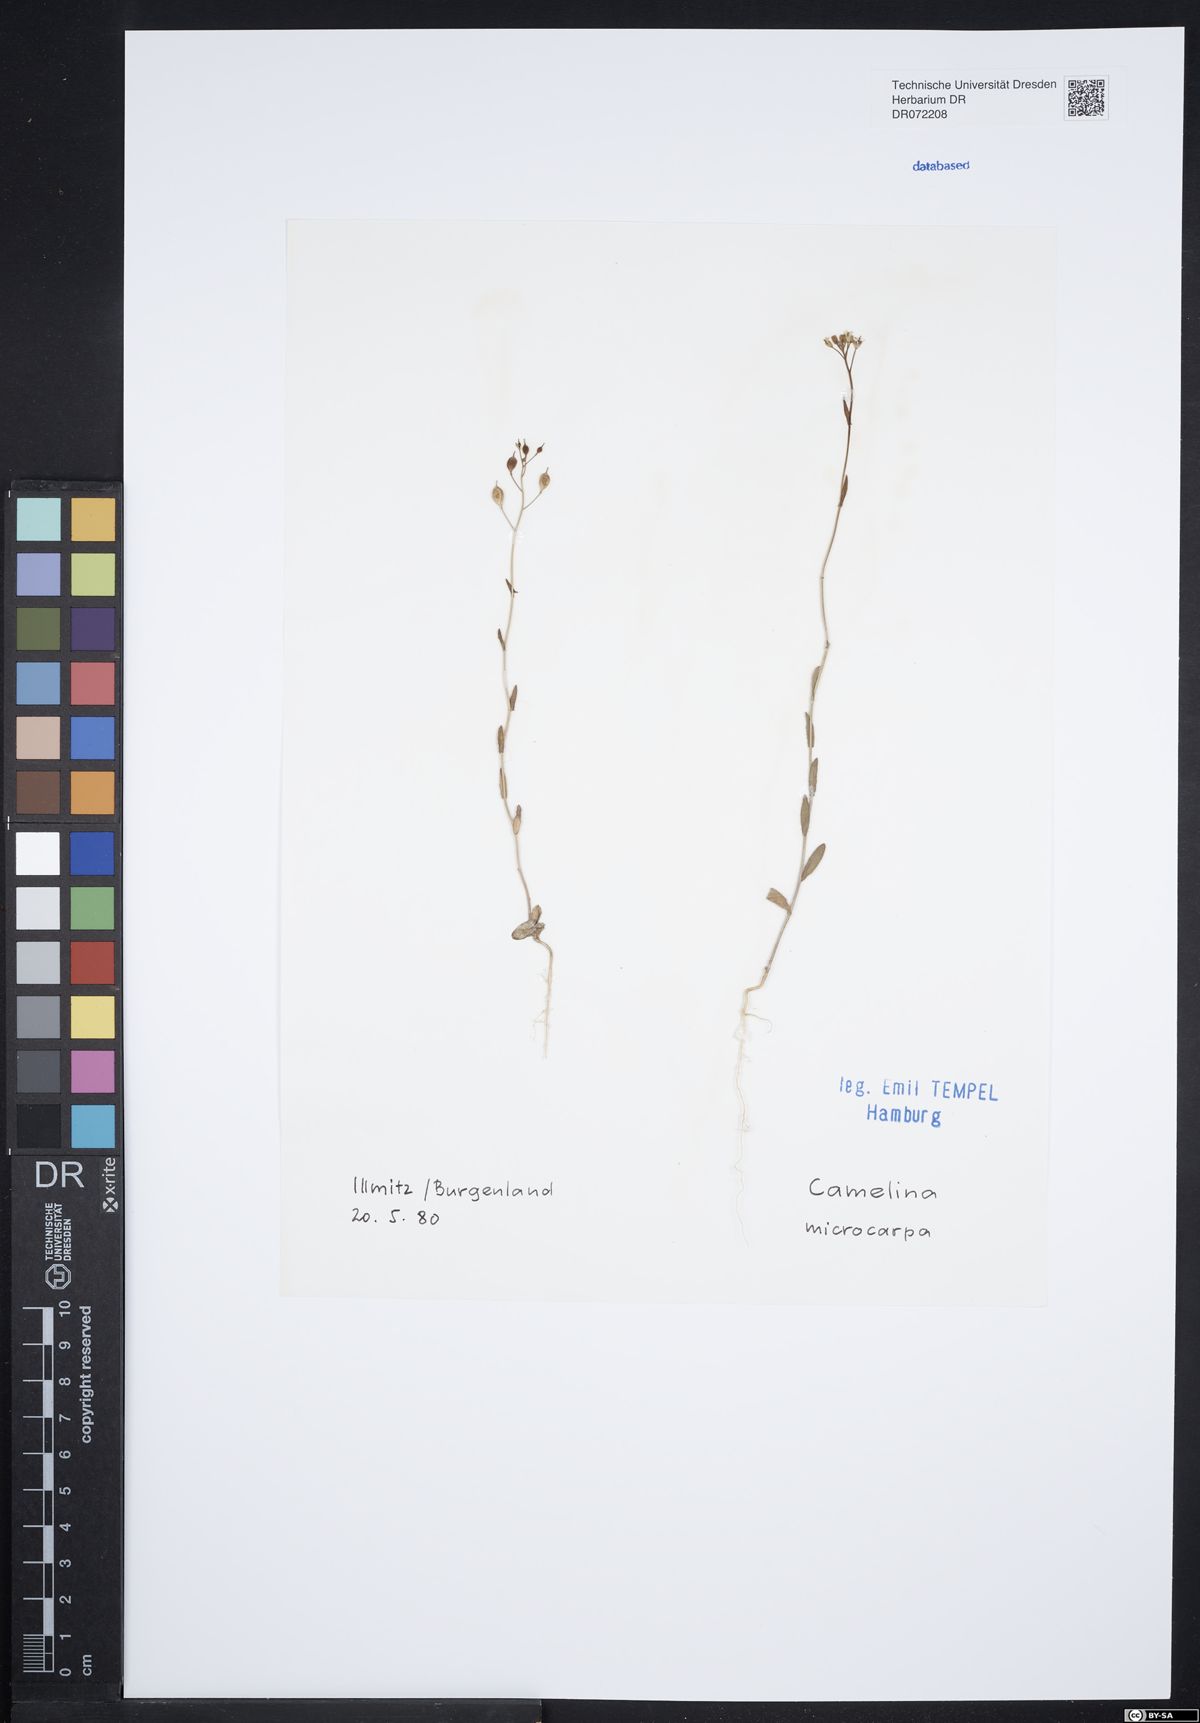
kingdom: Plantae
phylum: Tracheophyta
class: Magnoliopsida
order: Brassicales
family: Brassicaceae
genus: Camelina
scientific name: Camelina microcarpa
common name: Lesser gold-of-pleasure
